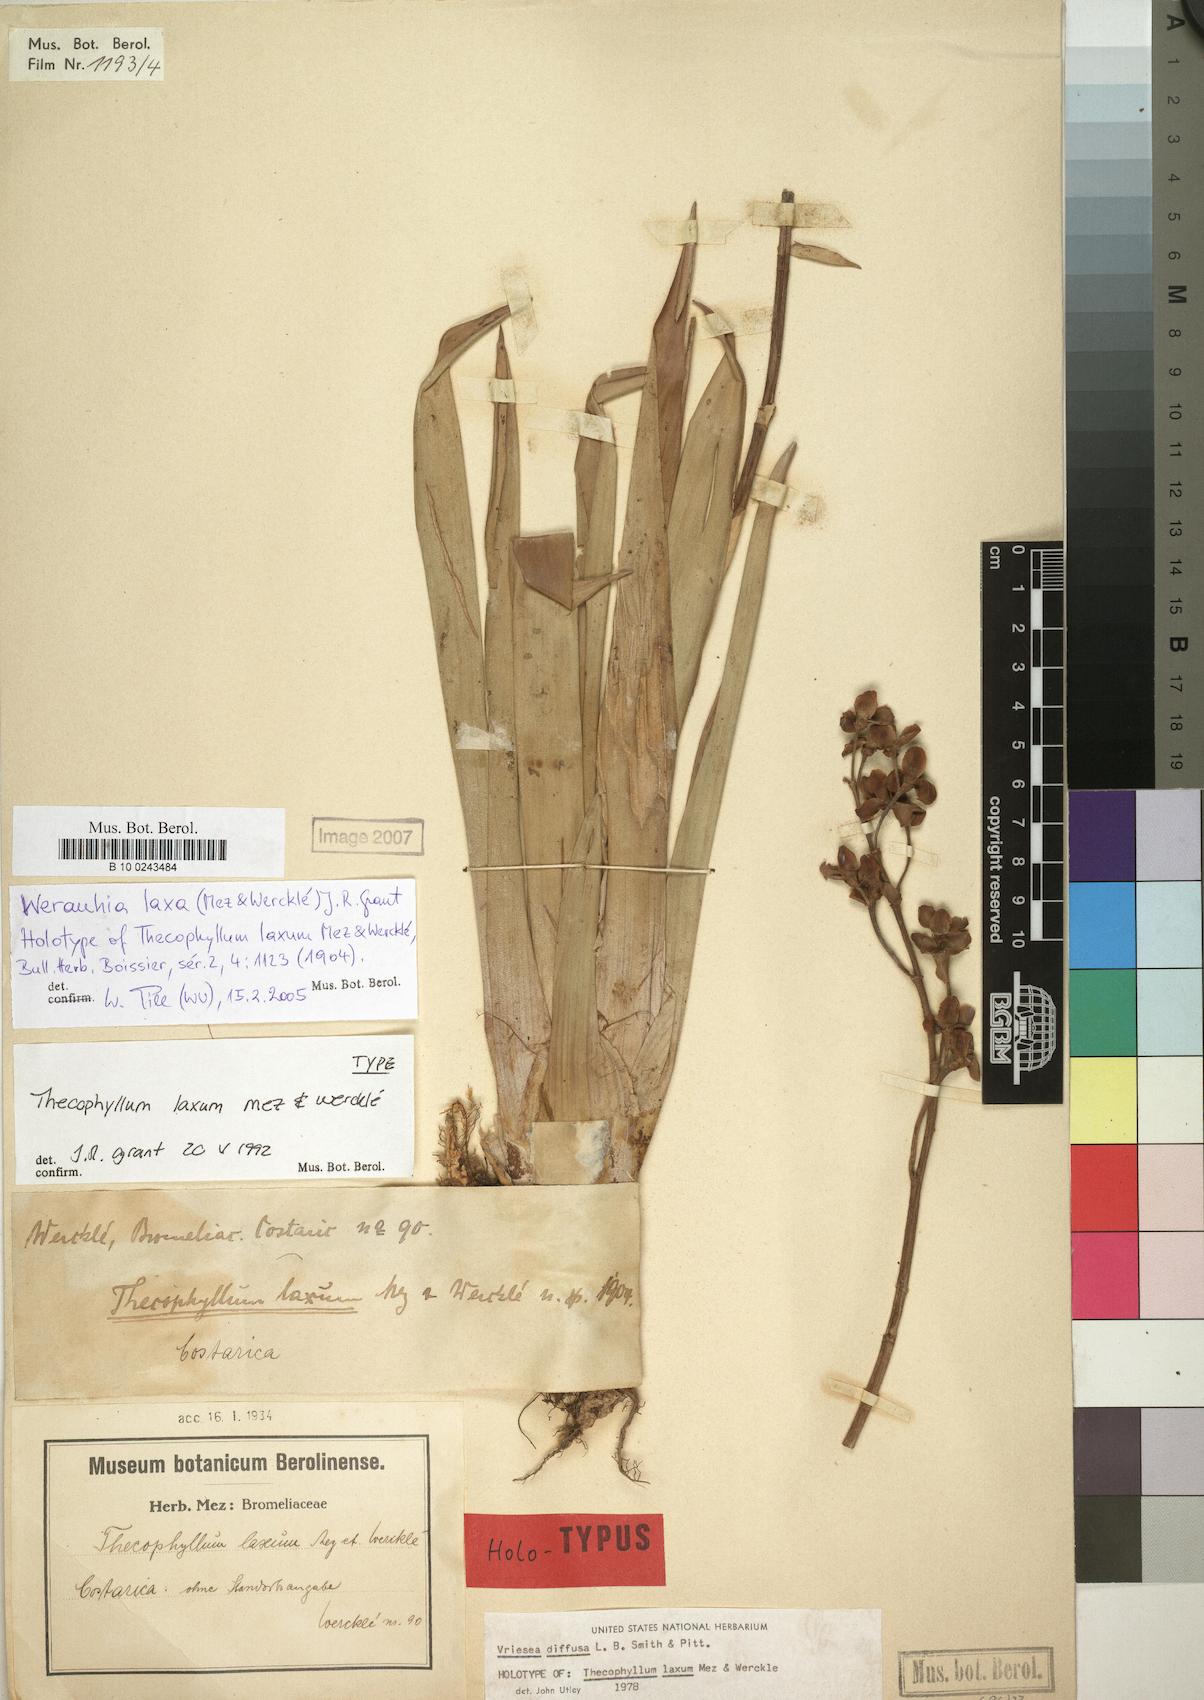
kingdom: Plantae
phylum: Tracheophyta
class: Liliopsida
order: Poales
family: Bromeliaceae
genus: Werauhia
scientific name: Werauhia laxa
